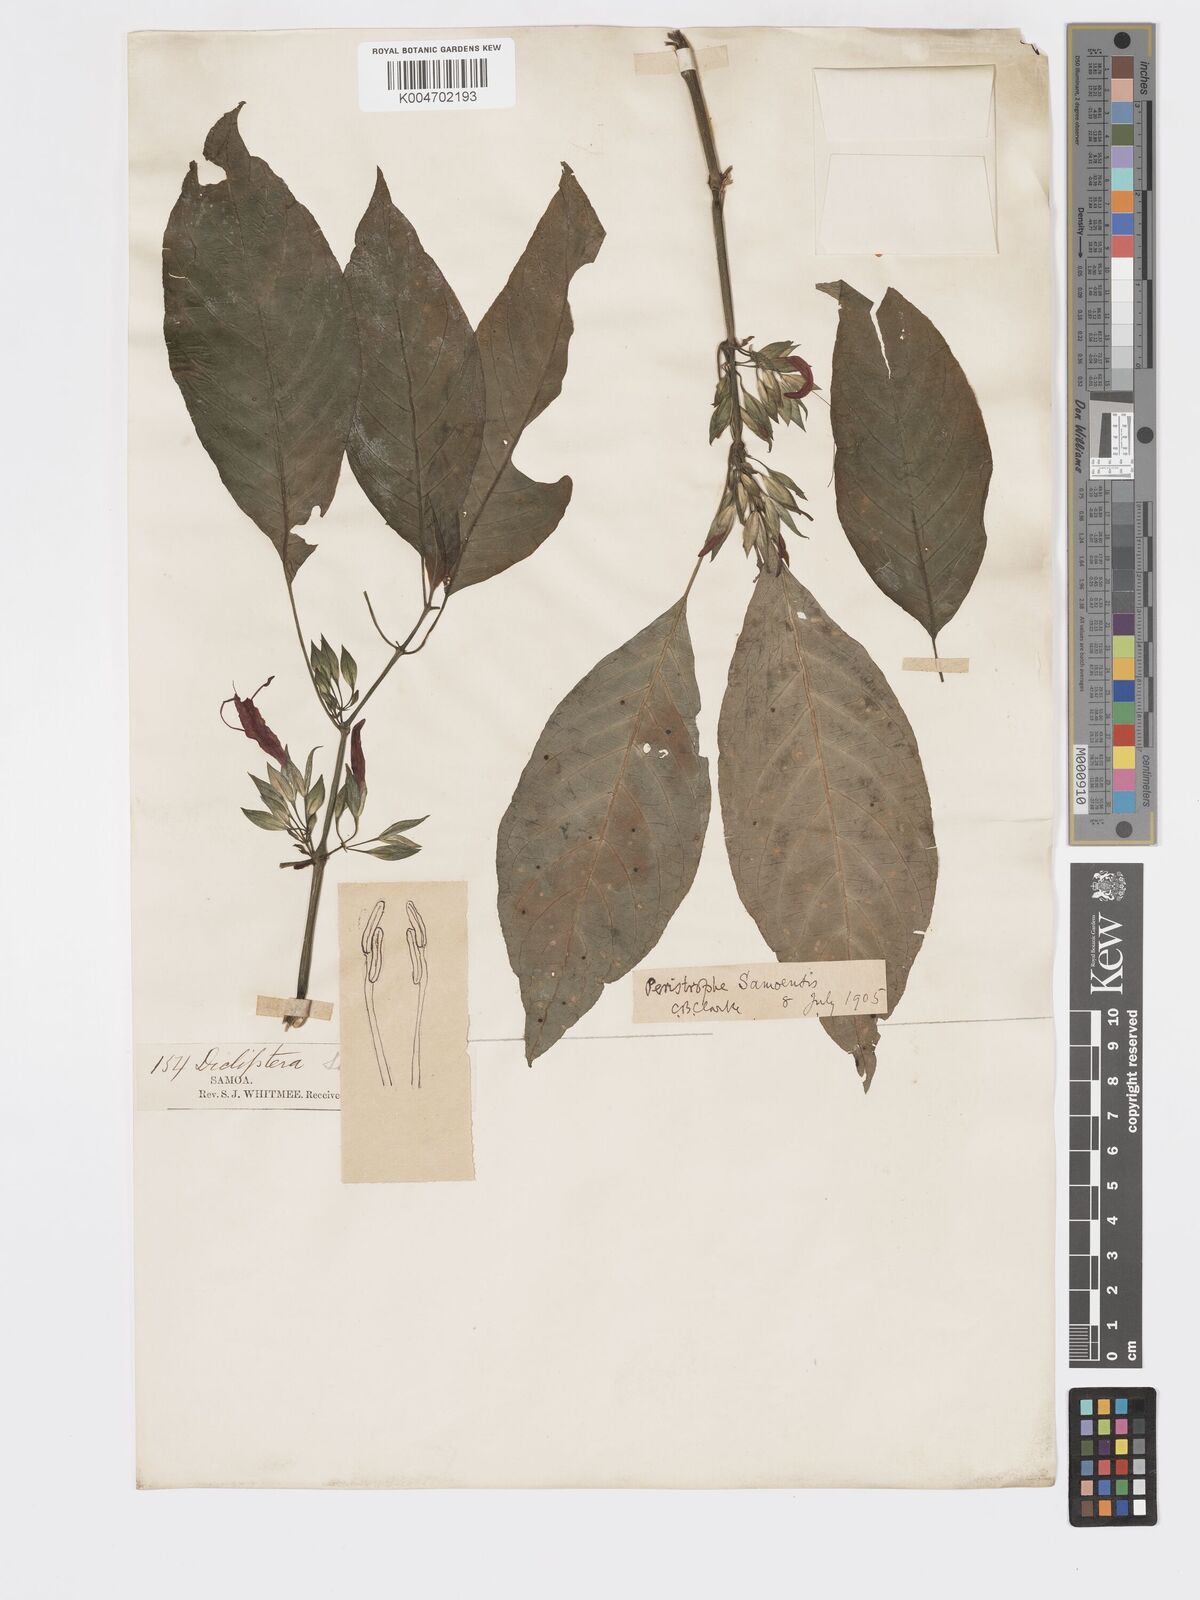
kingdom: Plantae
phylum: Tracheophyta
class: Magnoliopsida
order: Lamiales
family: Acanthaceae
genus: Dicliptera
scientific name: Dicliptera samoensis
